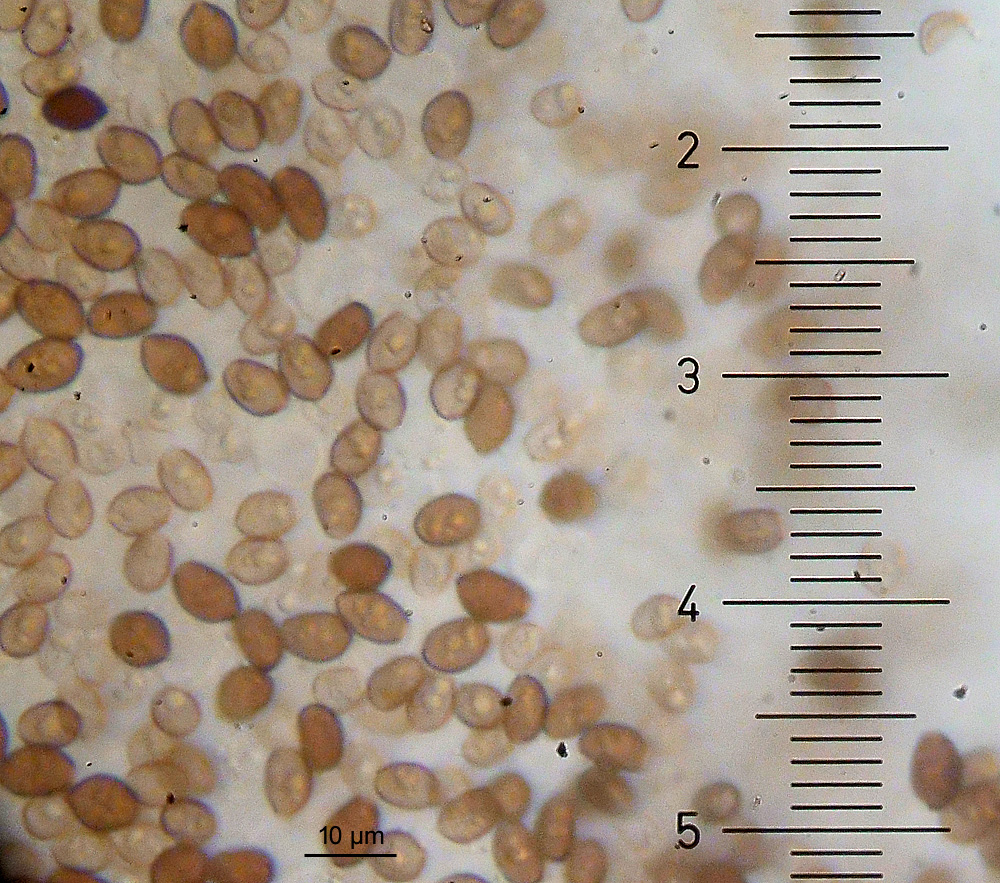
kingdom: Fungi
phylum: Basidiomycota
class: Agaricomycetes
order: Agaricales
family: Psathyrellaceae
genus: Coprinellus
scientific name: Coprinellus
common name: blækhat
